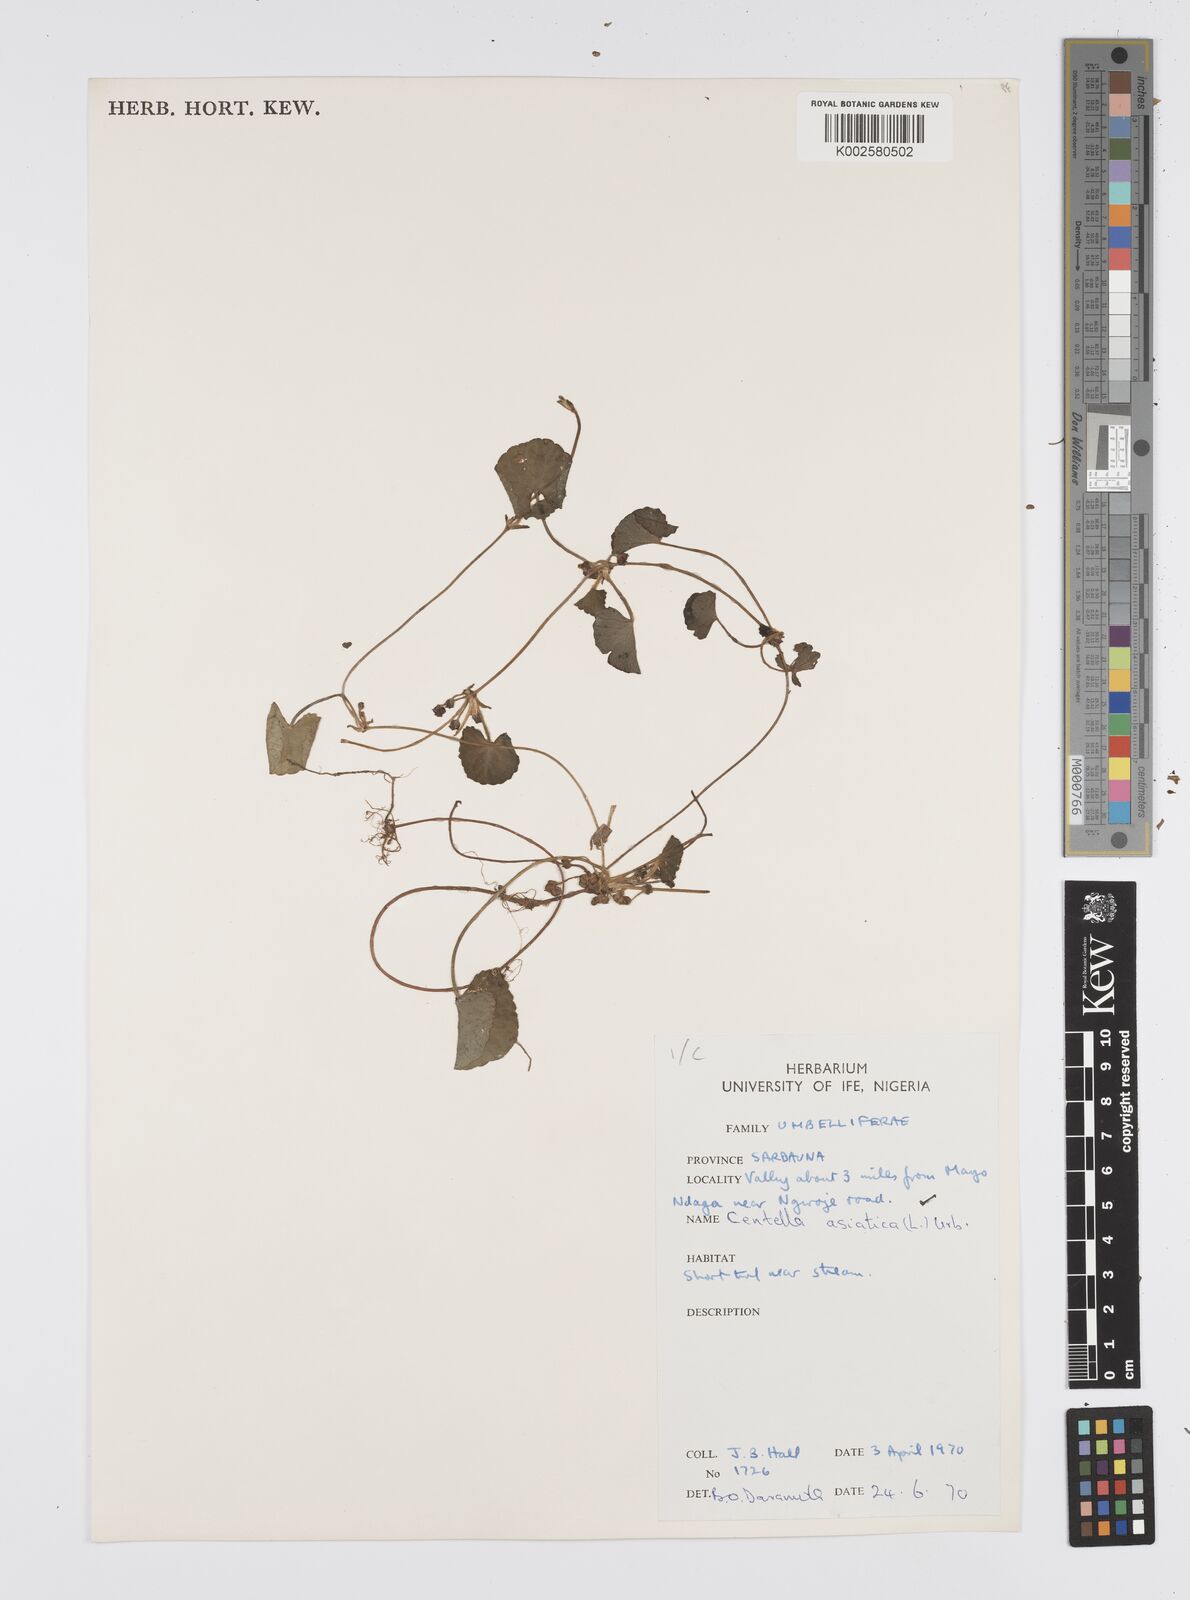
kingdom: Plantae
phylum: Tracheophyta
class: Magnoliopsida
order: Apiales
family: Apiaceae
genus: Centella
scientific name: Centella asiatica
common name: Spadeleaf
